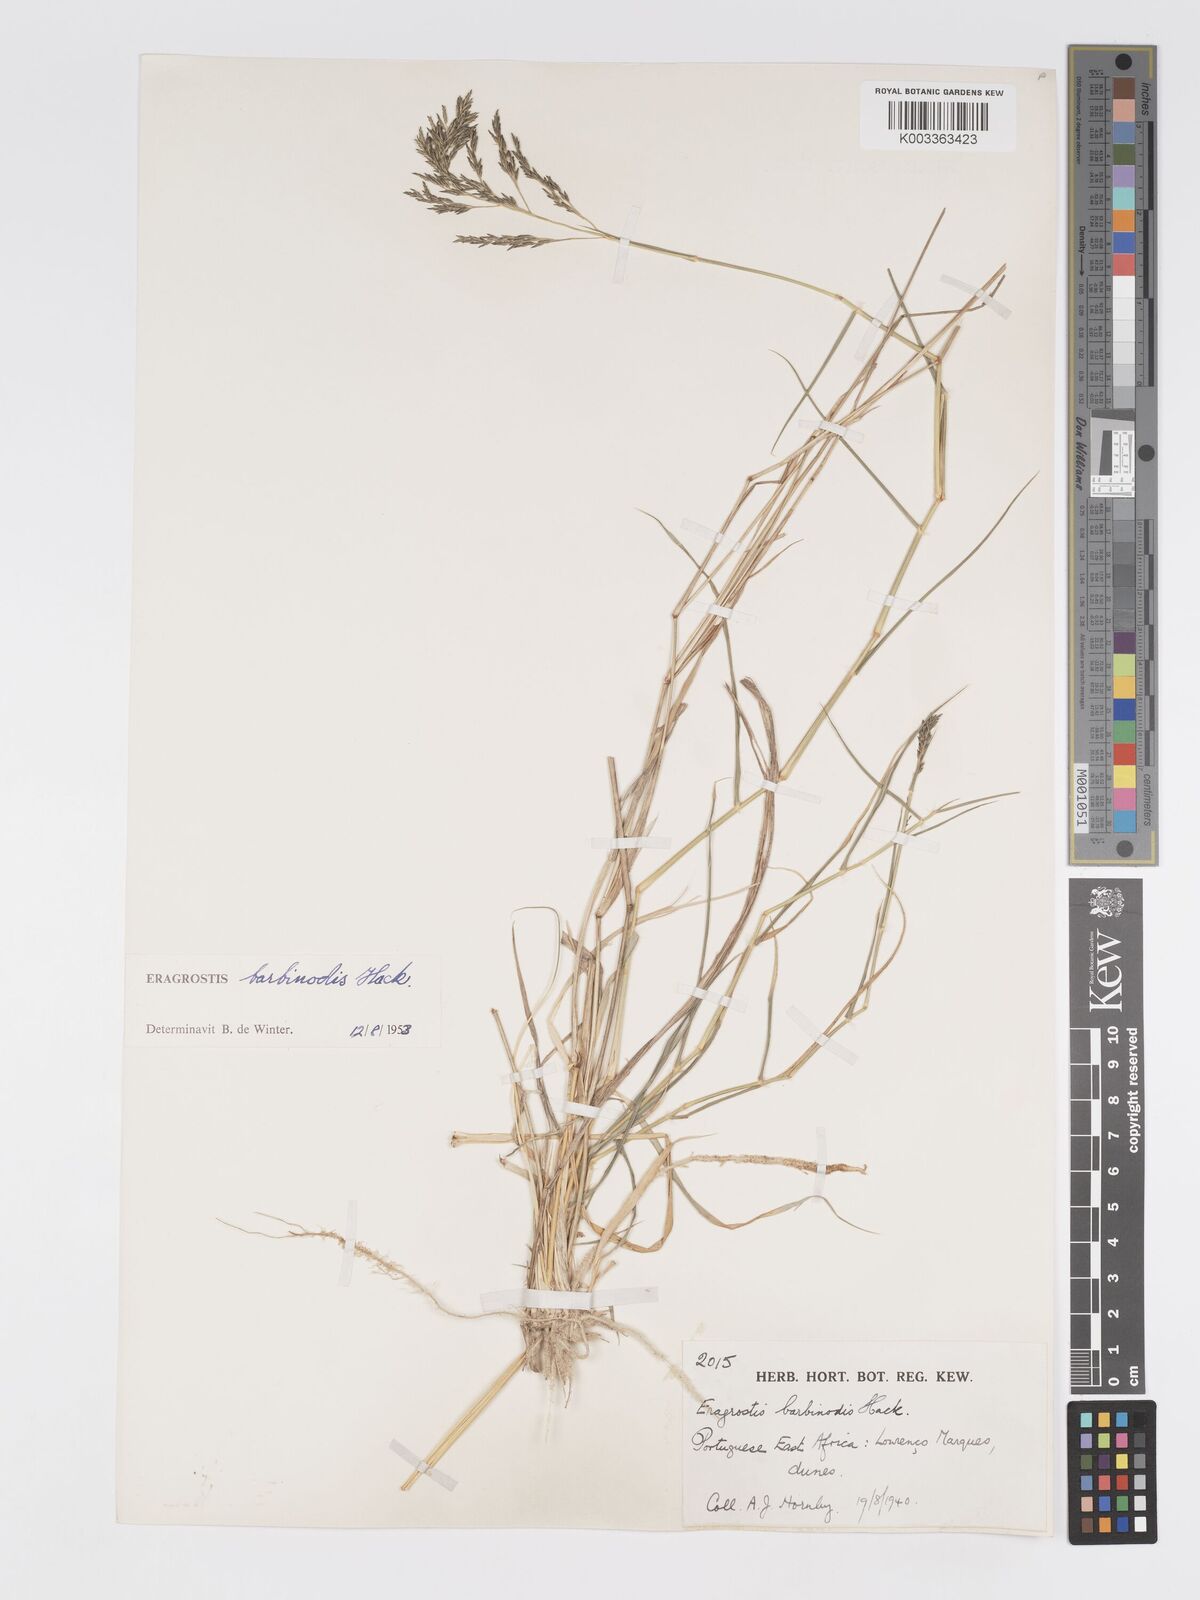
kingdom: Plantae
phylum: Tracheophyta
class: Liliopsida
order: Poales
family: Poaceae
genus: Eragrostis
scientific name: Eragrostis barbinodis
